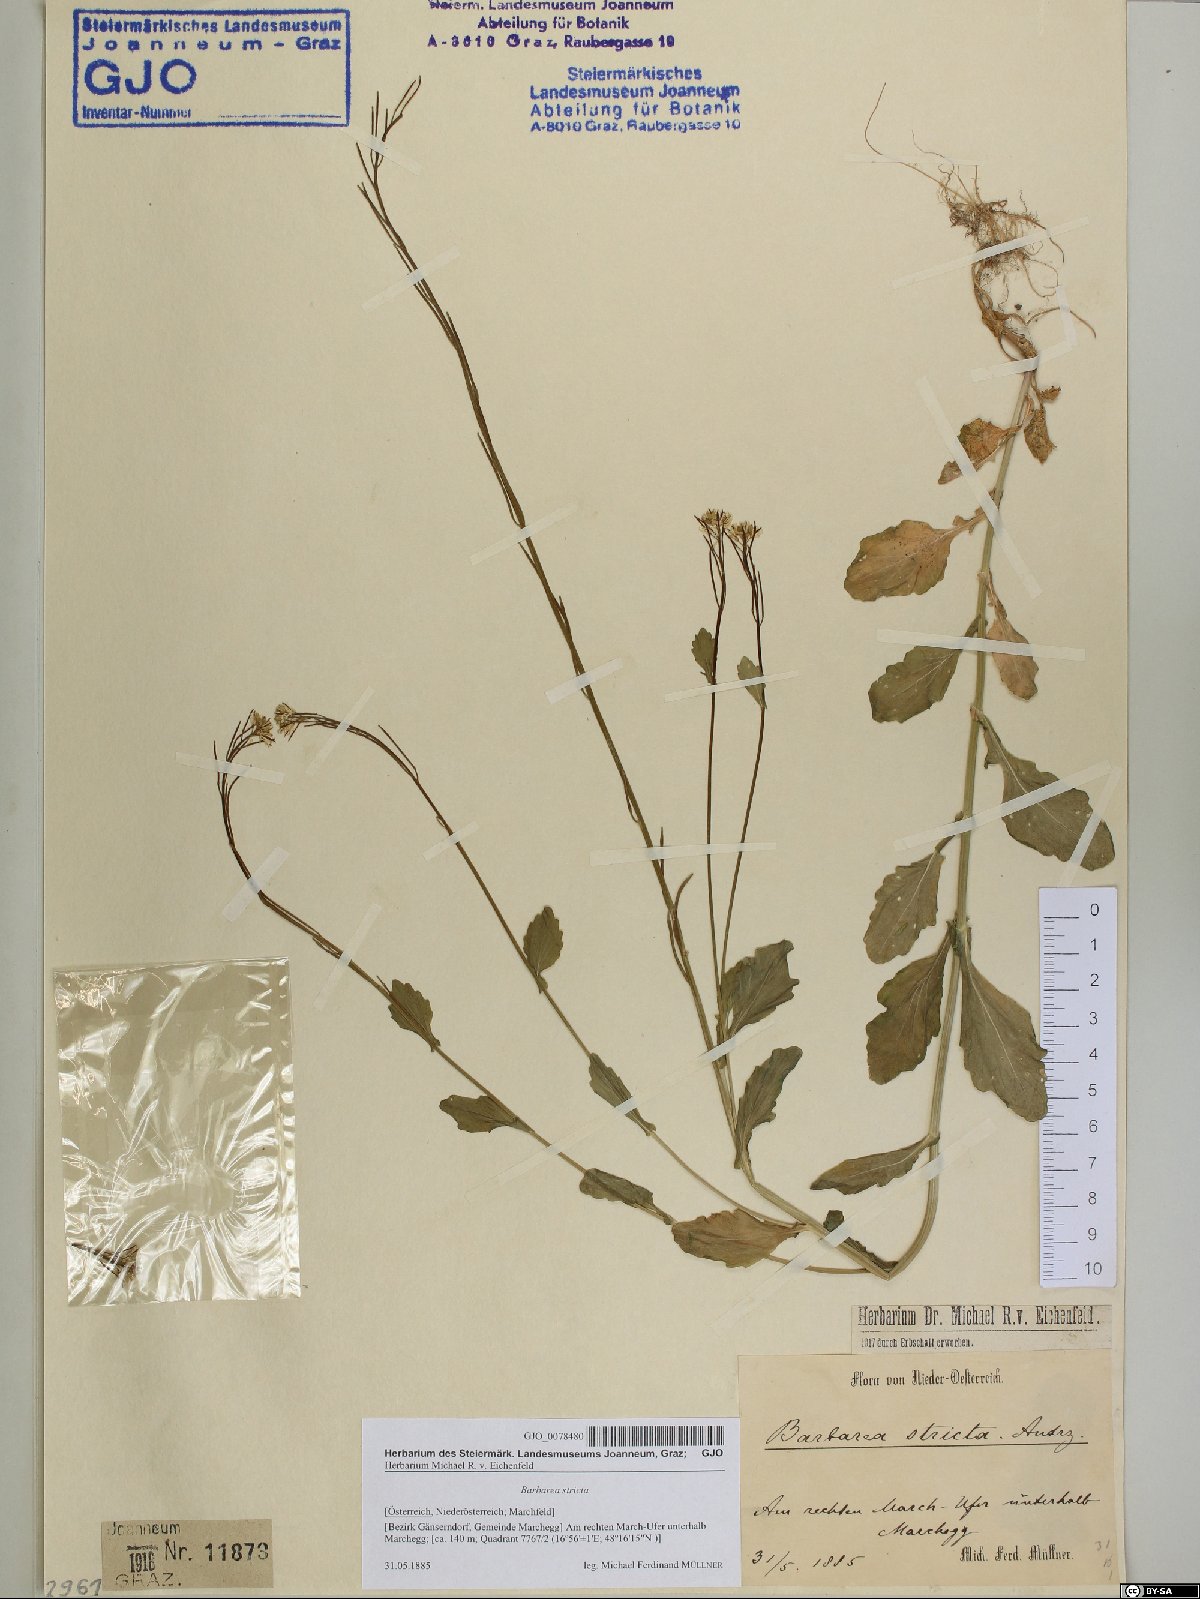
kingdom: Plantae
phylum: Tracheophyta
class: Magnoliopsida
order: Brassicales
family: Brassicaceae
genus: Barbarea
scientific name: Barbarea stricta
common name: Small-flowered winter-cress
